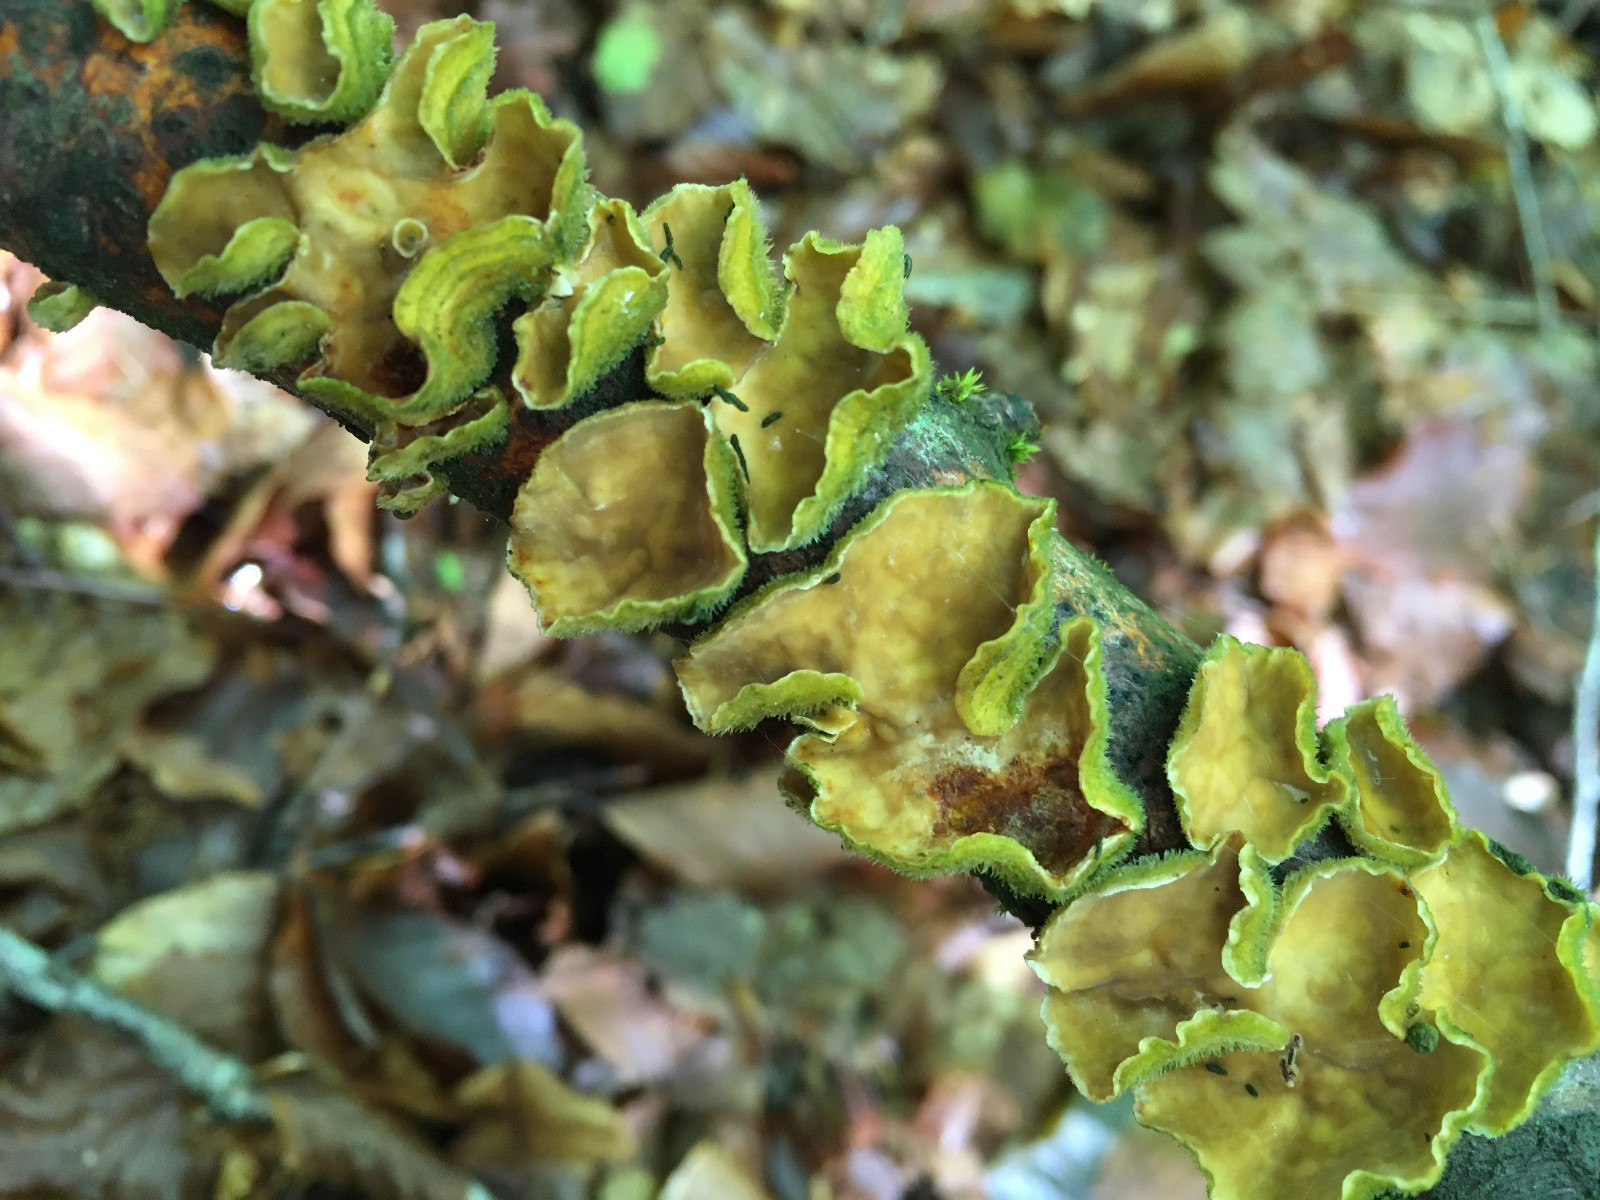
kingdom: Fungi
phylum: Basidiomycota
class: Agaricomycetes
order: Russulales
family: Stereaceae
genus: Stereum
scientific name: Stereum
